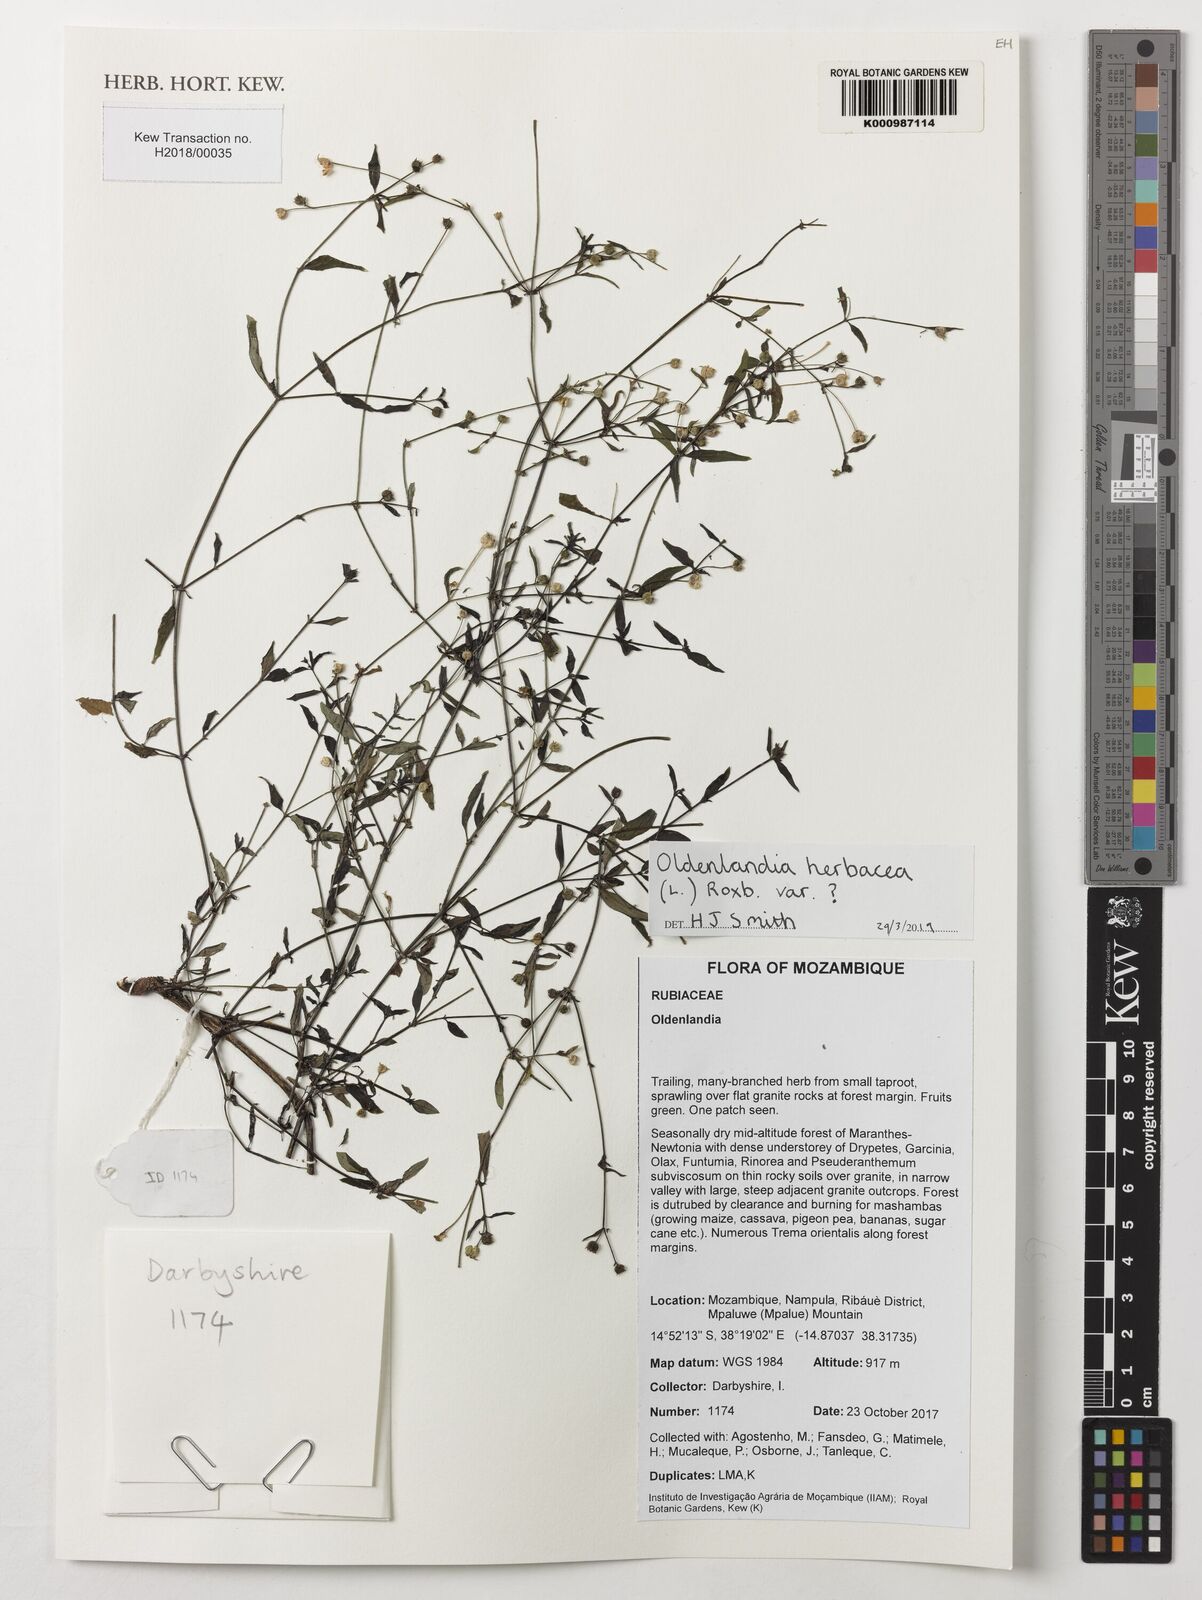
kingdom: Plantae
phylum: Tracheophyta
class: Magnoliopsida
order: Gentianales
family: Rubiaceae
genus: Oldenlandia
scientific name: Oldenlandia herbacea
